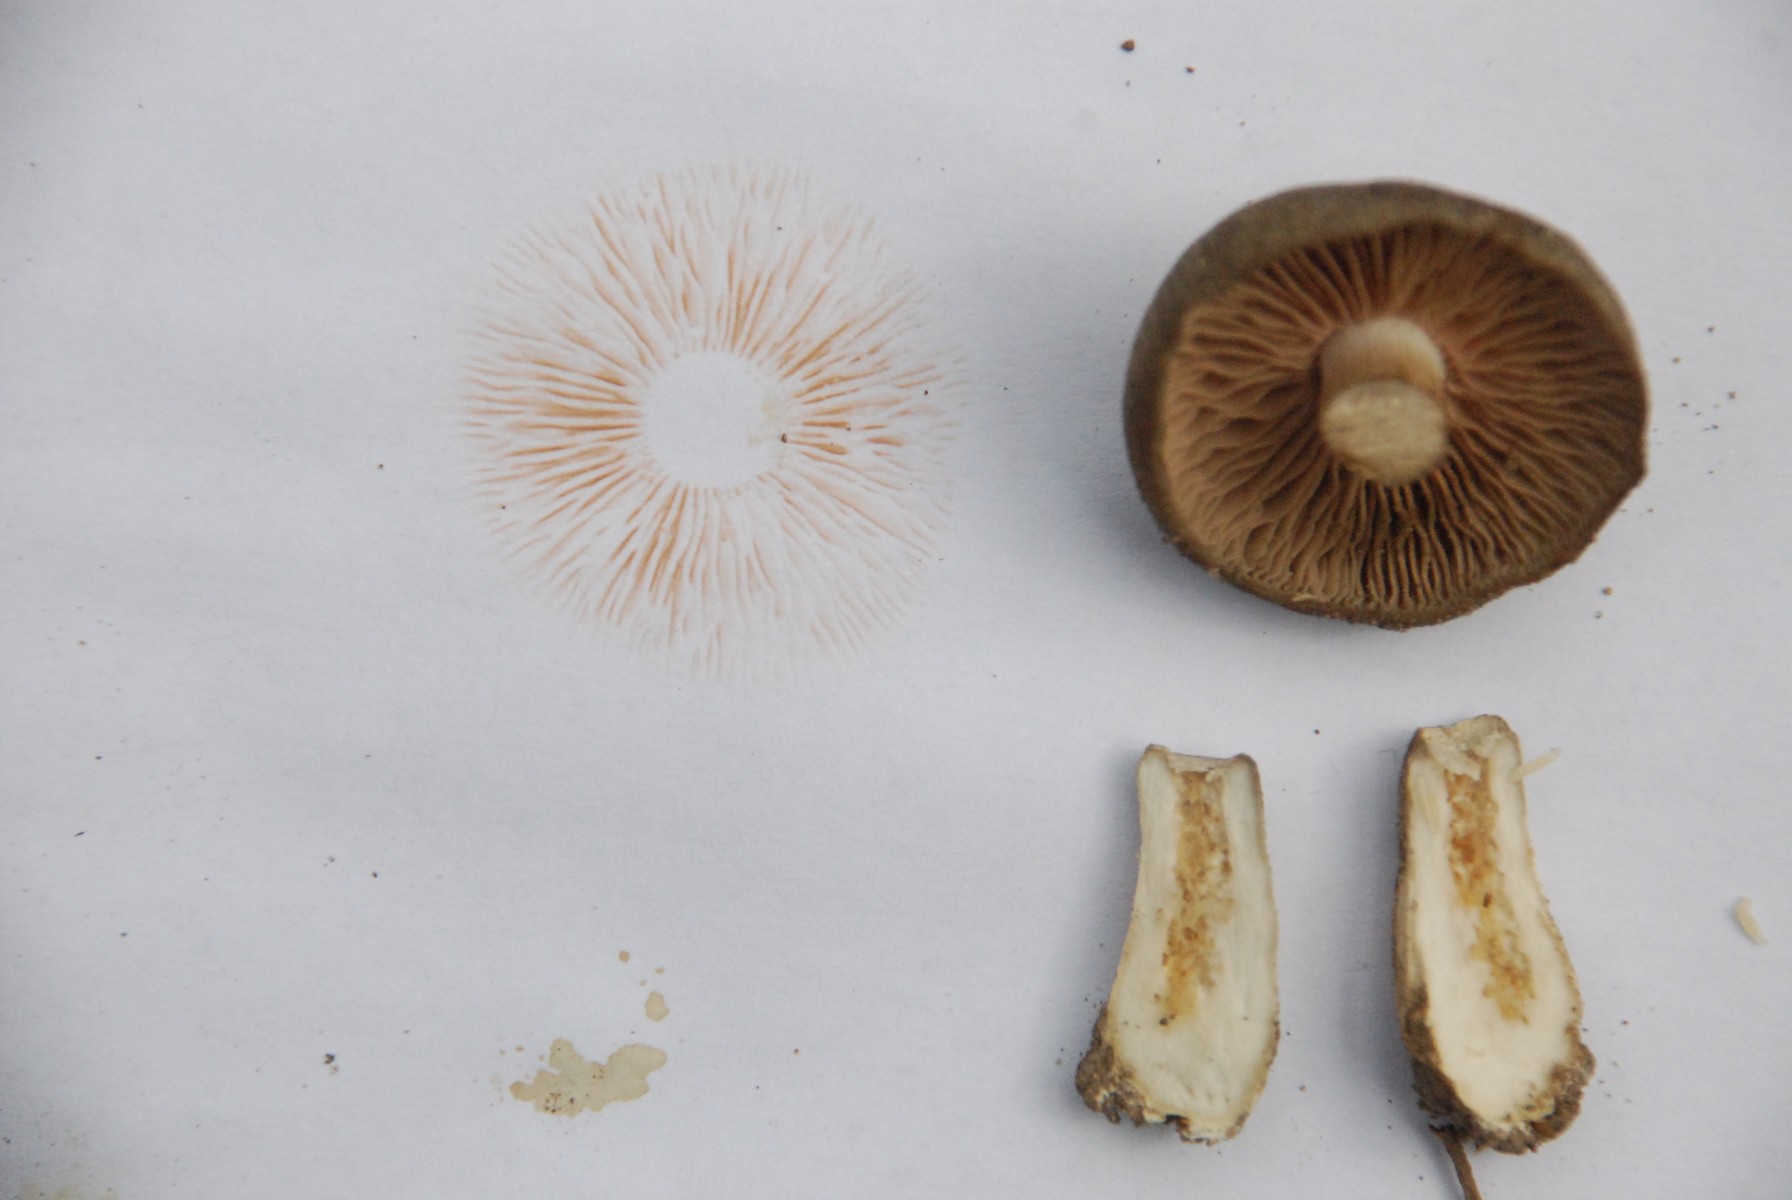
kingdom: Fungi
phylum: Basidiomycota
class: Agaricomycetes
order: Agaricales
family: Entolomataceae
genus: Entoloma
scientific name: Entoloma clypeatum
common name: flammet rødblad
